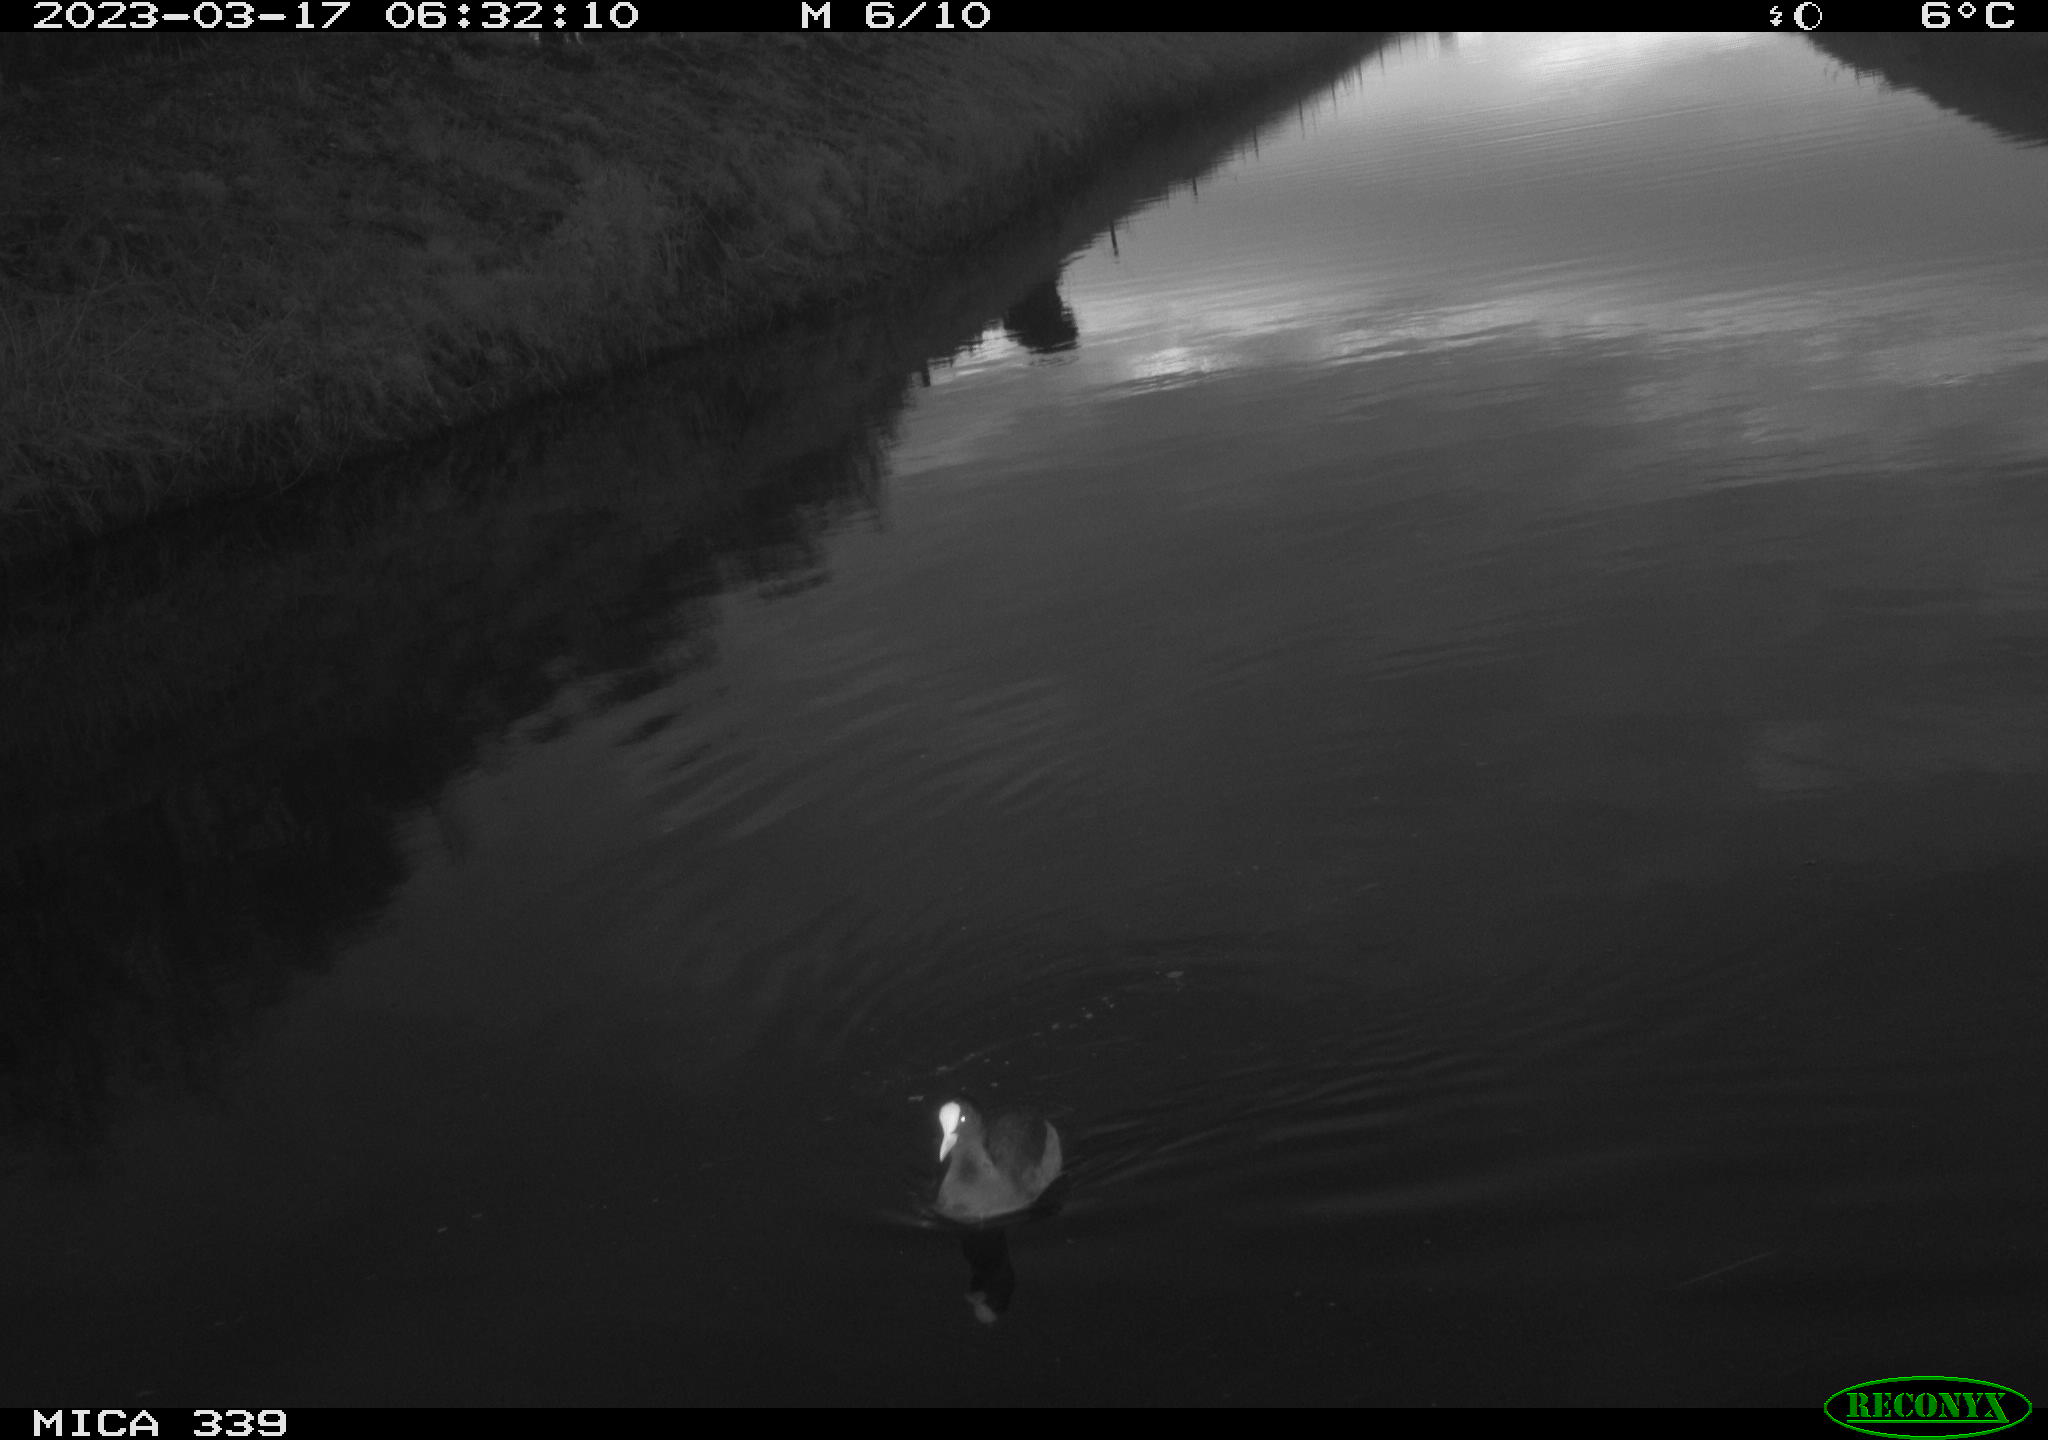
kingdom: Animalia
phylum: Chordata
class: Aves
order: Gruiformes
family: Rallidae
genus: Gallinula
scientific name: Gallinula chloropus
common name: Common moorhen
